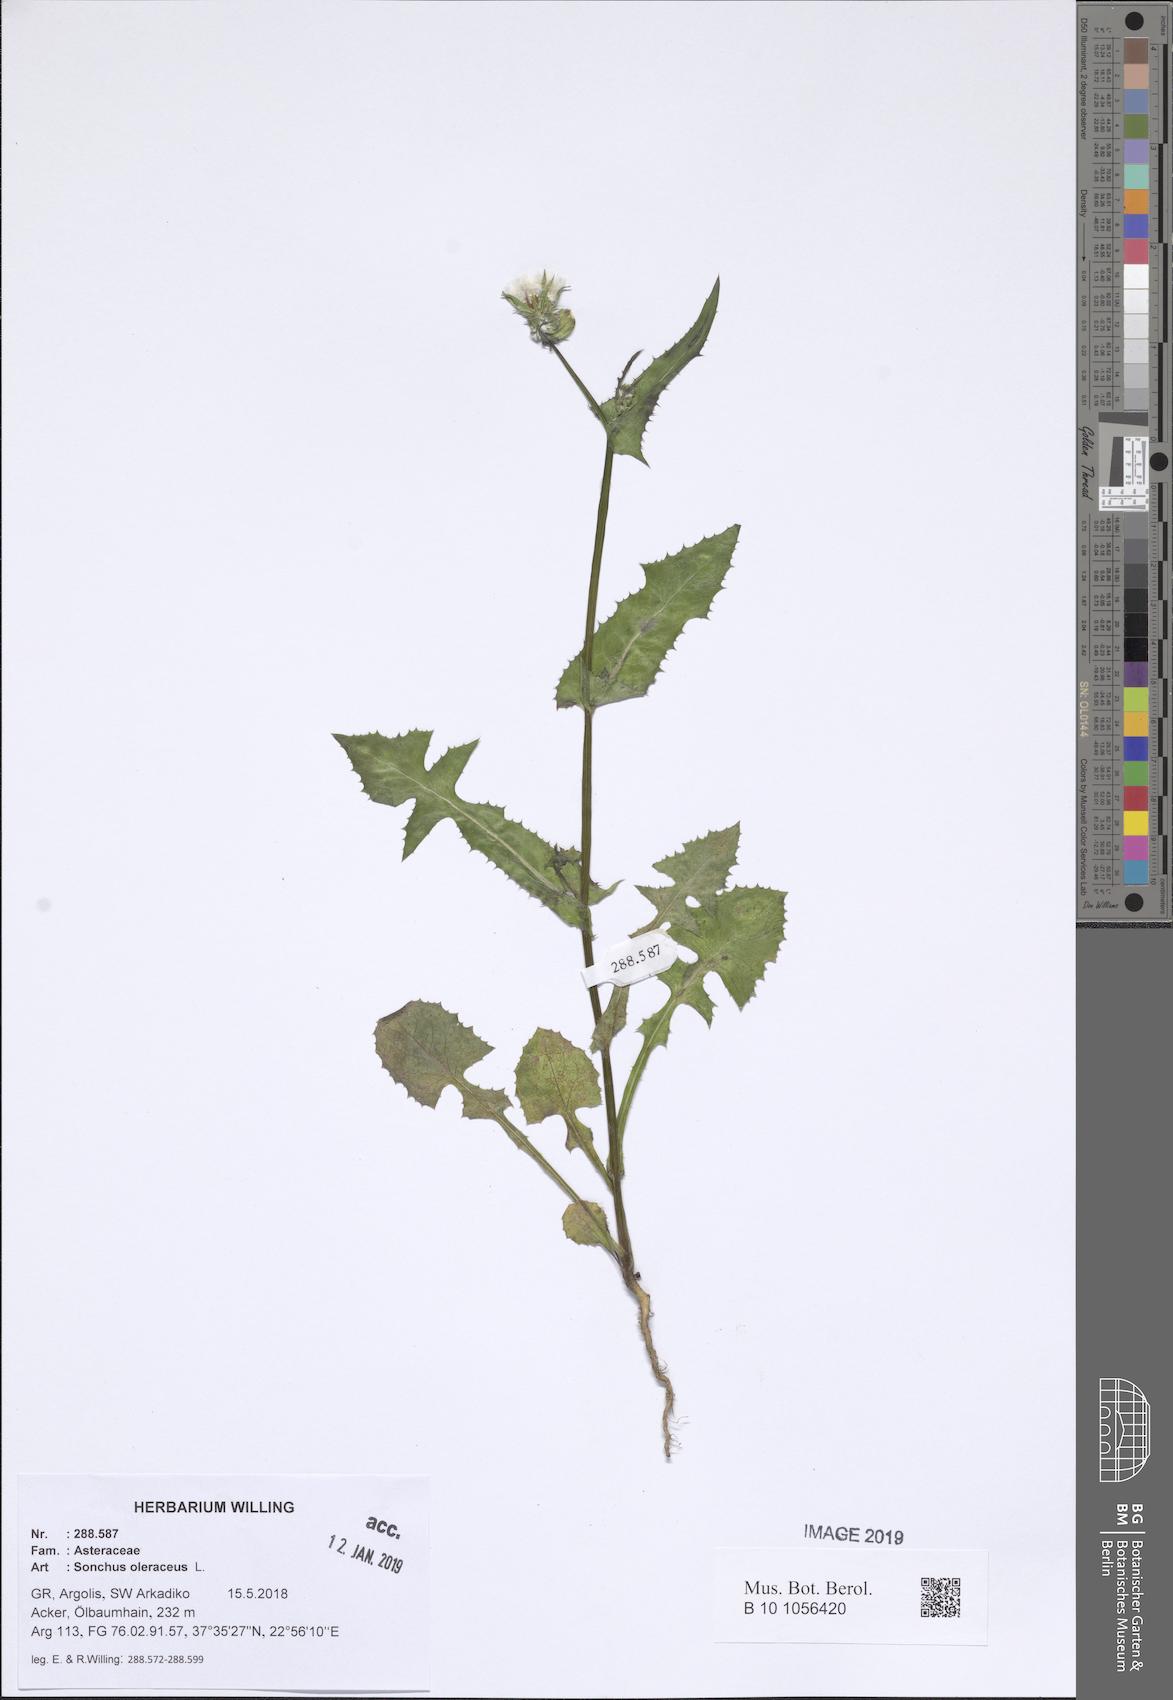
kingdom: Plantae
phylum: Tracheophyta
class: Magnoliopsida
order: Asterales
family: Asteraceae
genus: Sonchus
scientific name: Sonchus oleraceus
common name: Common sowthistle
